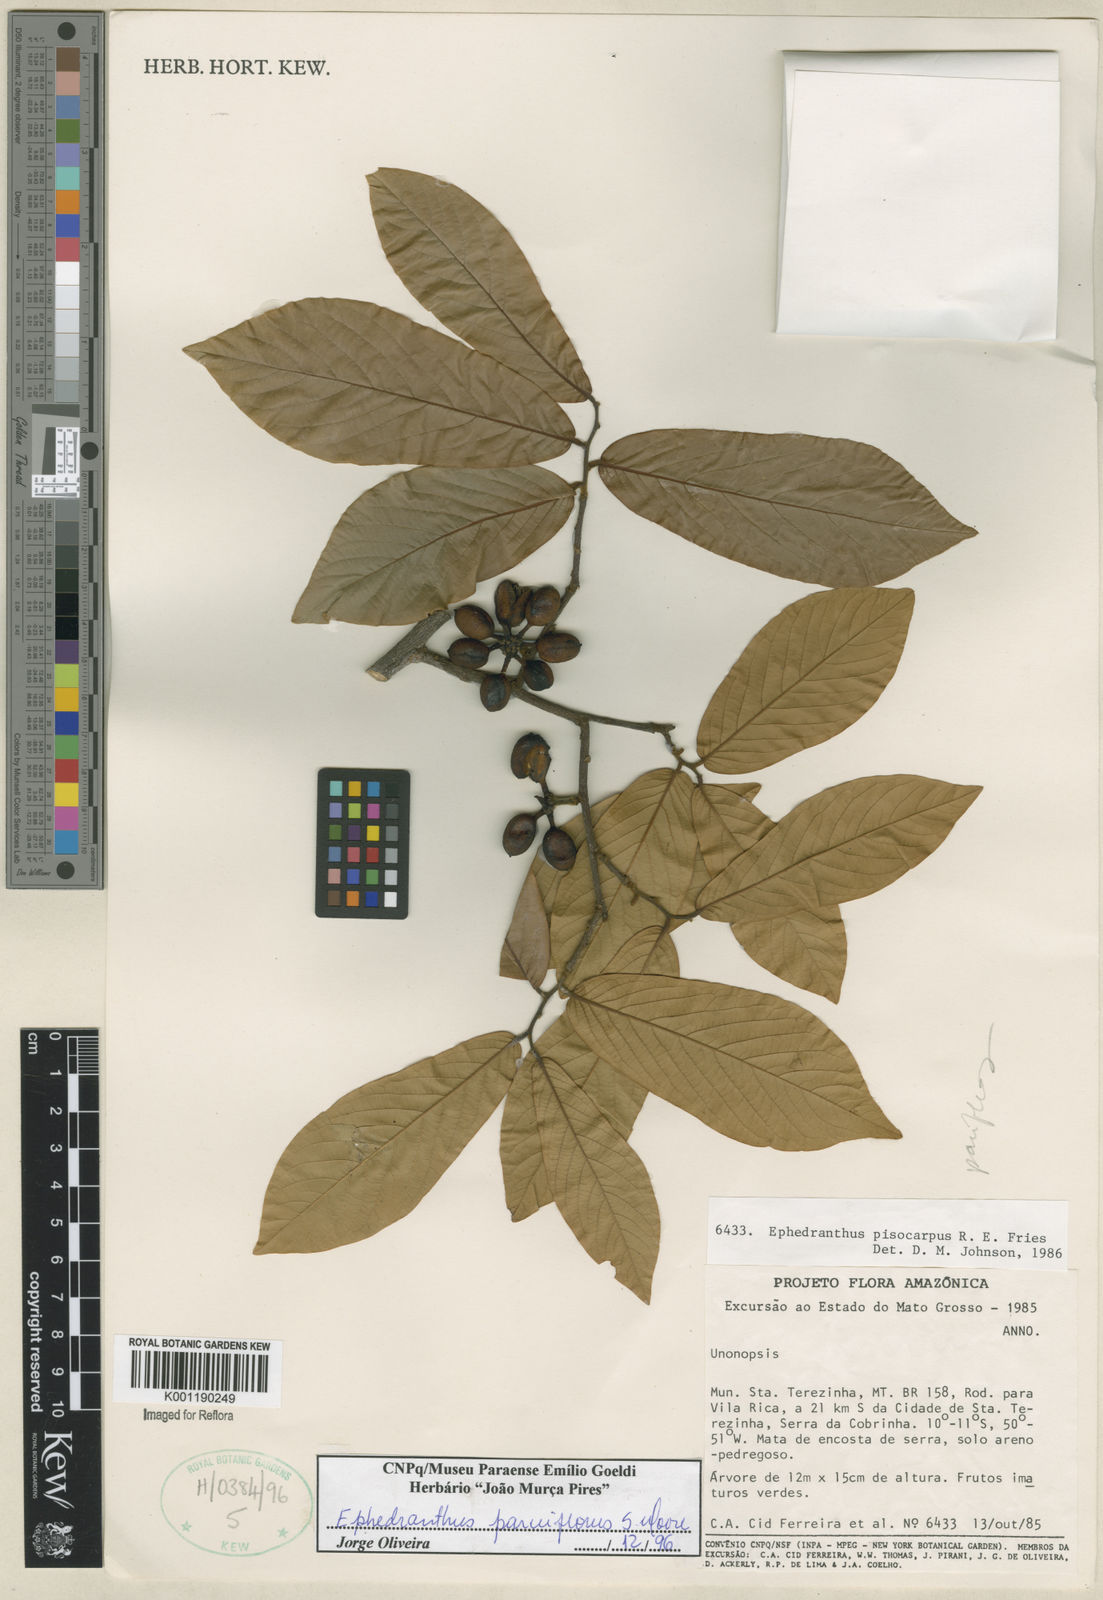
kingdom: Plantae
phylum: Tracheophyta
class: Magnoliopsida
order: Magnoliales
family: Annonaceae
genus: Ephedranthus
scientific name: Ephedranthus parviflorus
